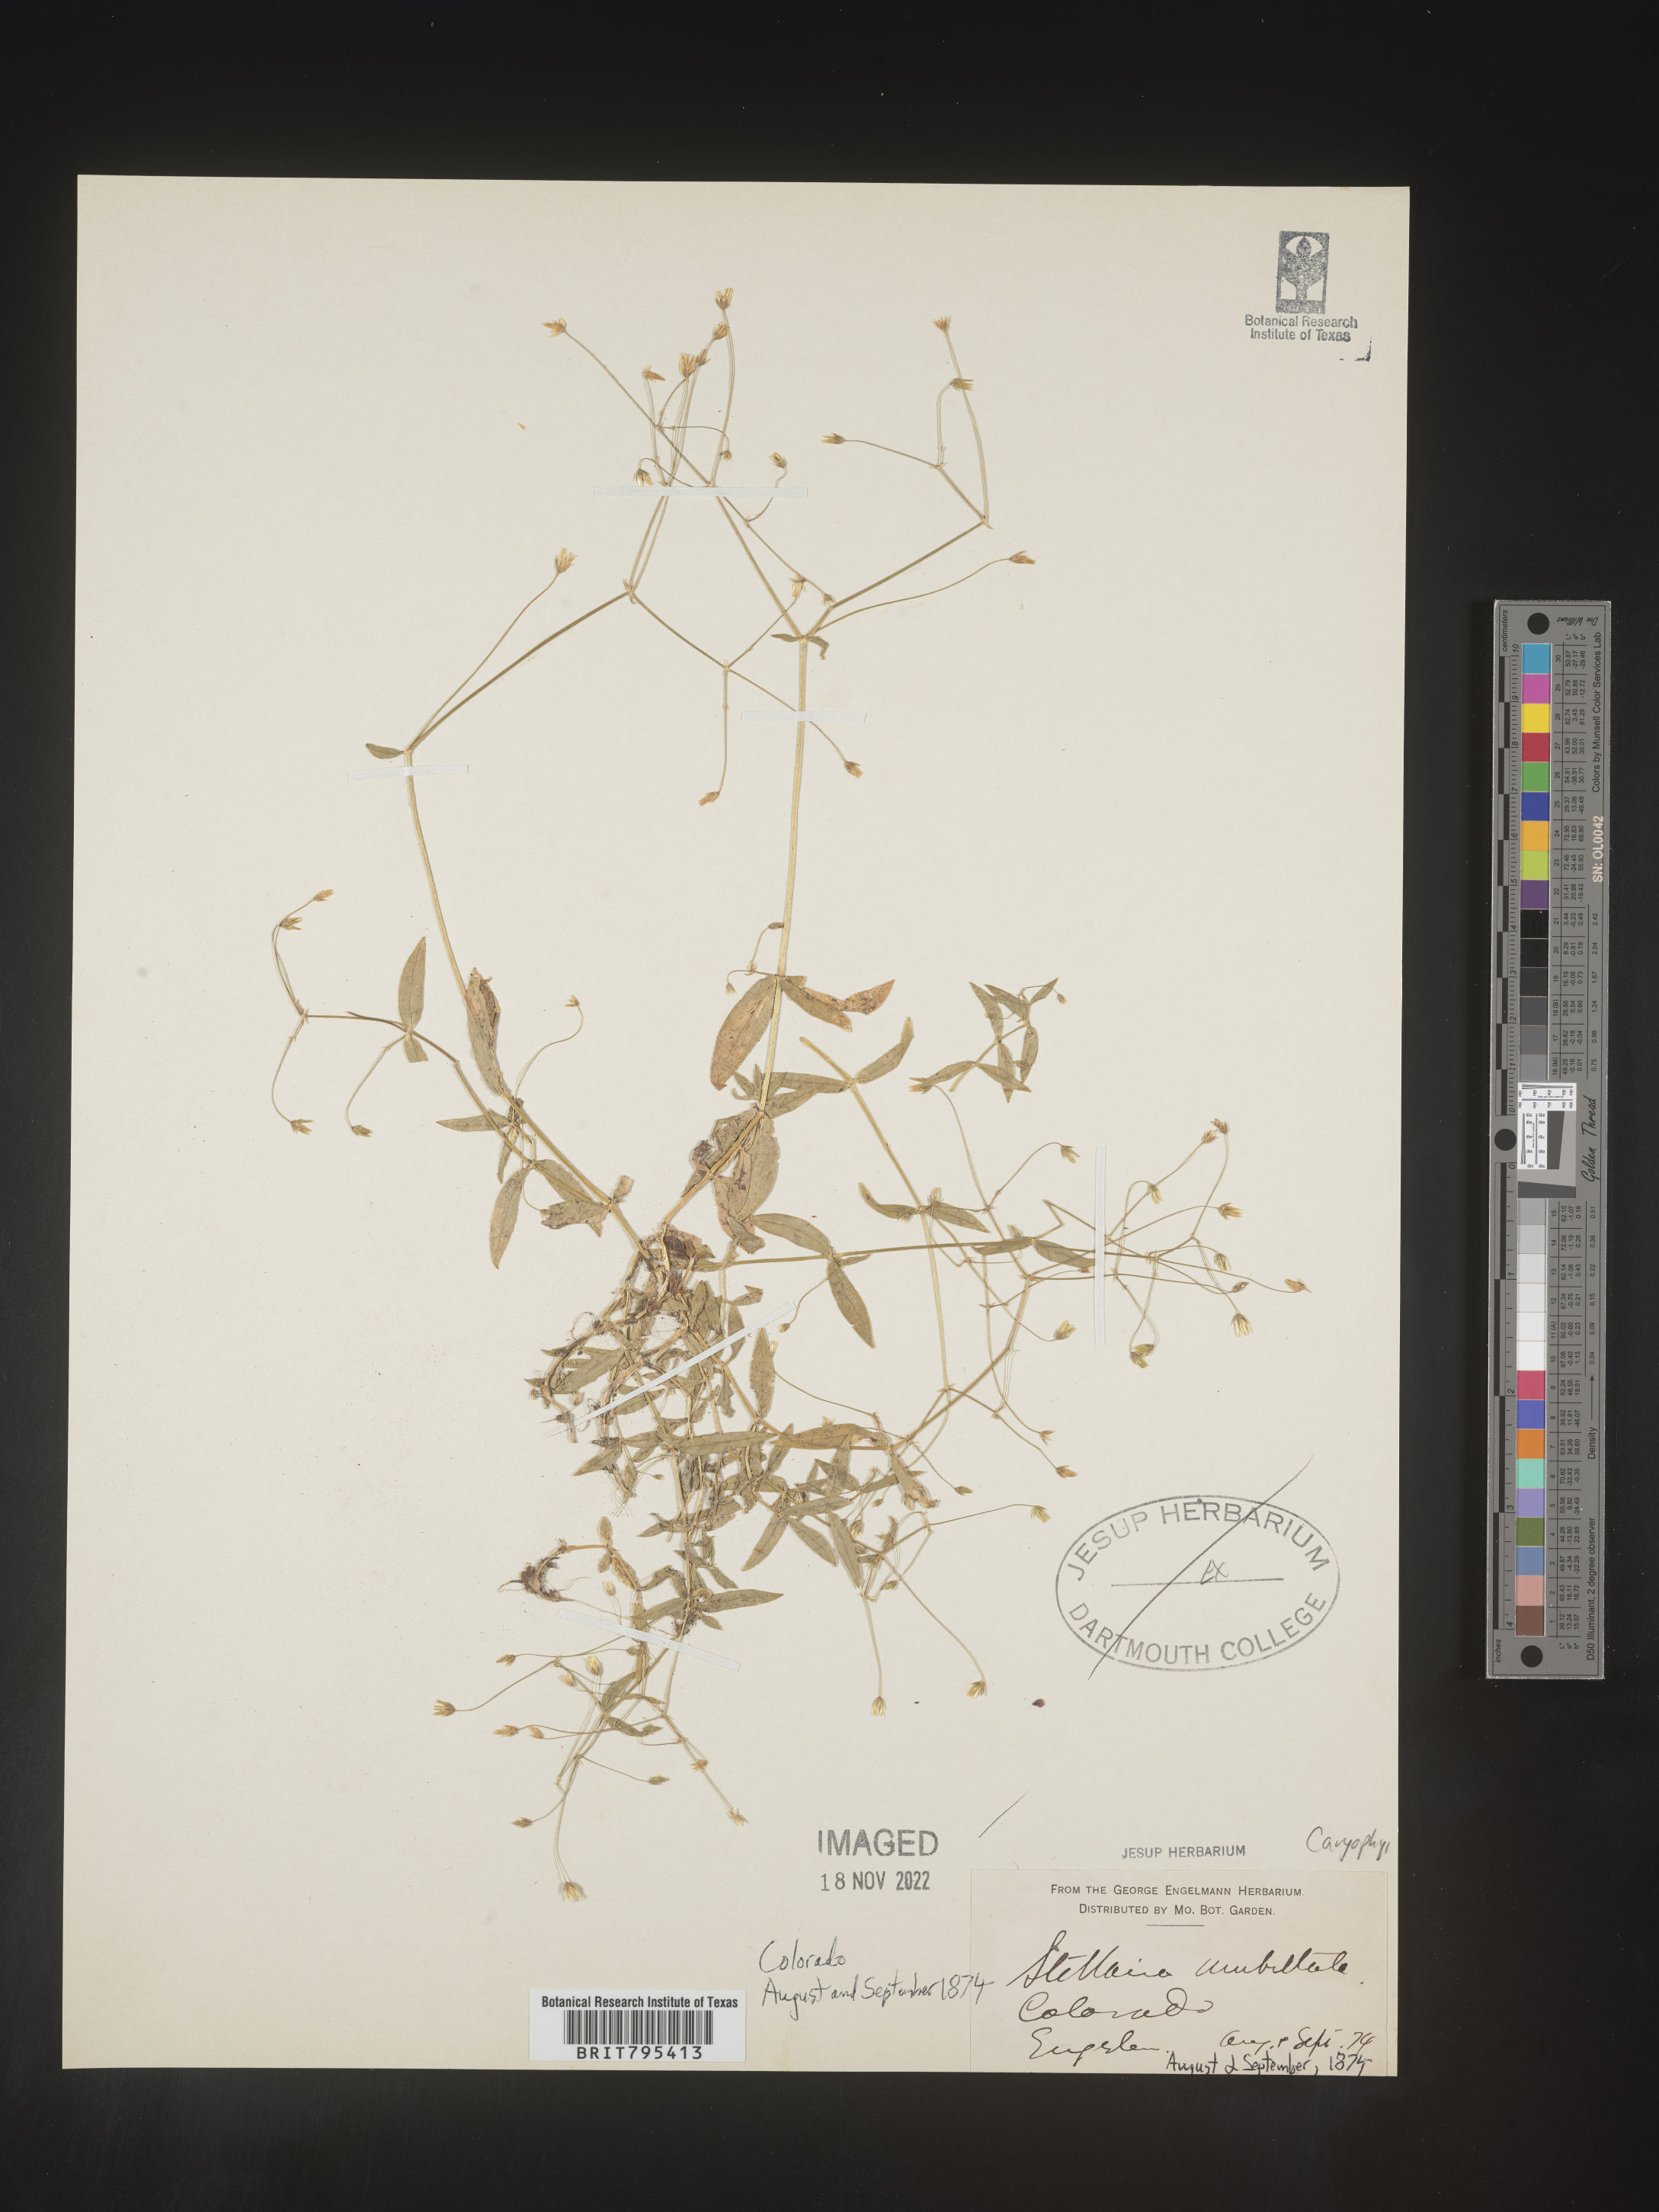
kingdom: Plantae
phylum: Tracheophyta
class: Magnoliopsida
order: Caryophyllales
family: Caryophyllaceae
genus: Stellaria
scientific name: Stellaria
